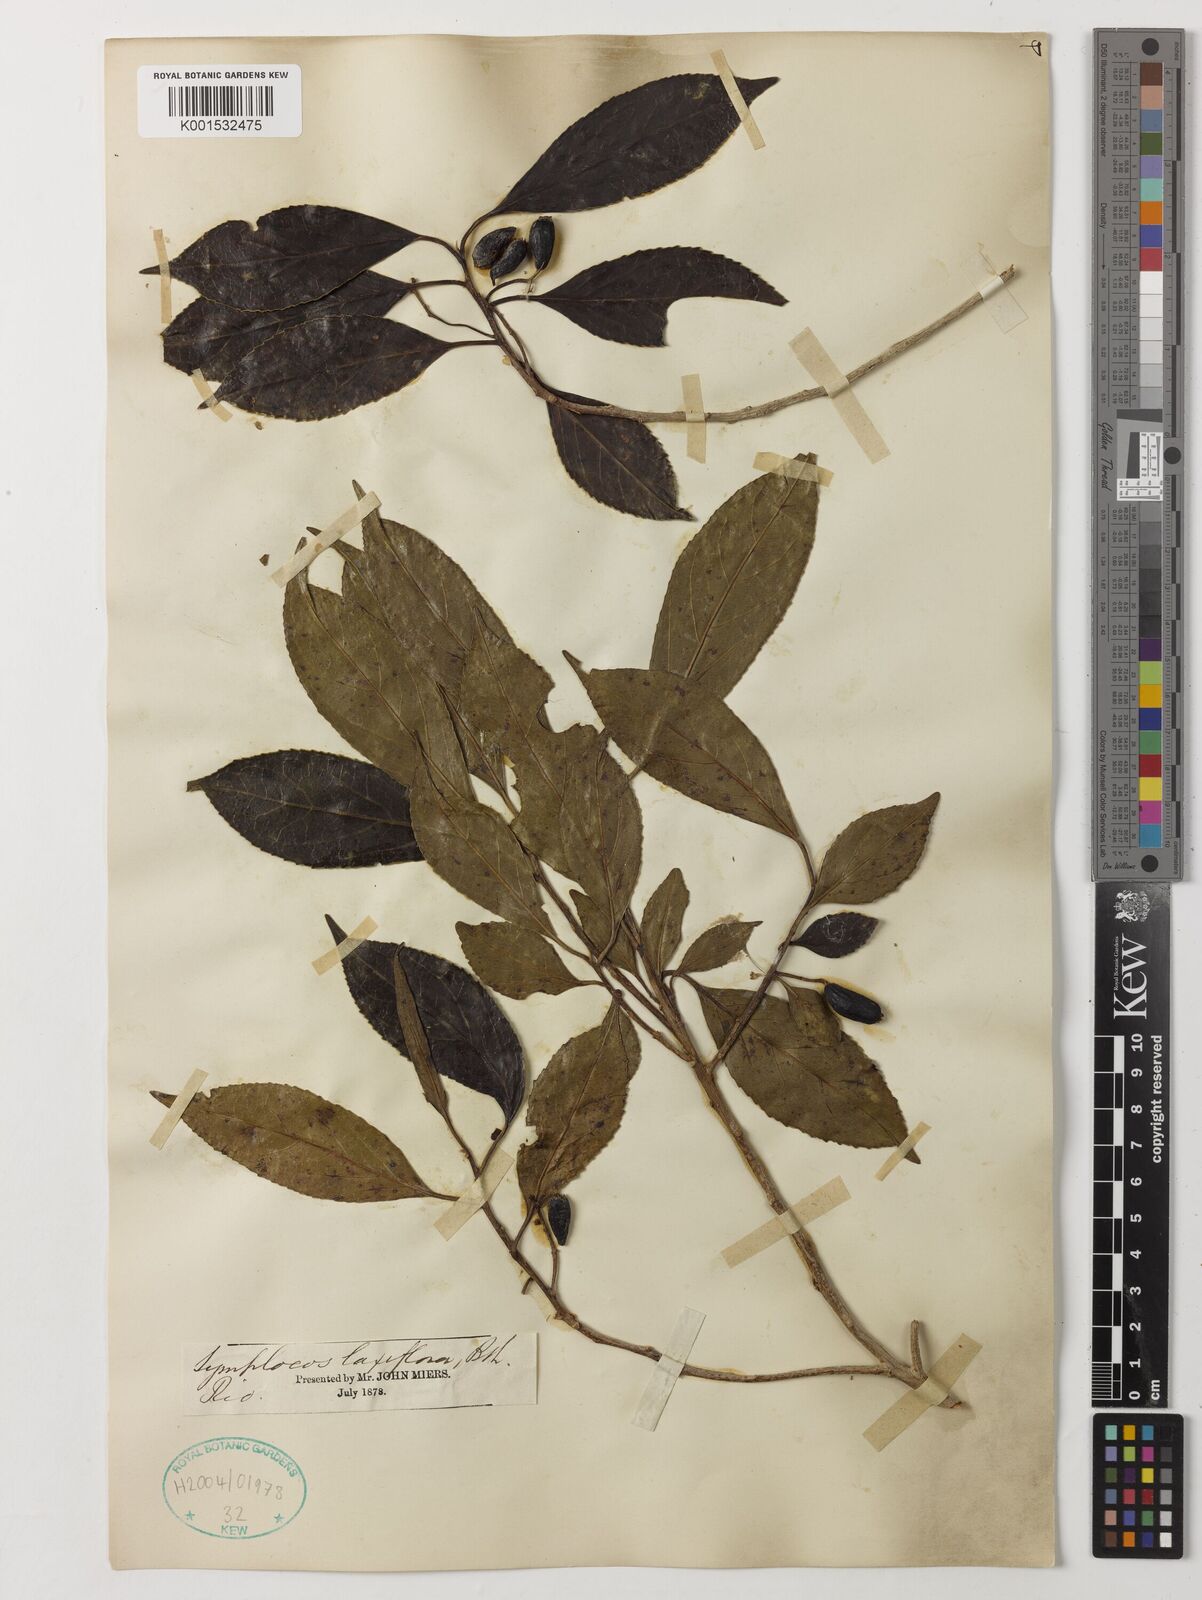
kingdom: Plantae
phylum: Tracheophyta
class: Magnoliopsida
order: Ericales
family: Symplocaceae
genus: Symplocos
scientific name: Symplocos laxiflora
